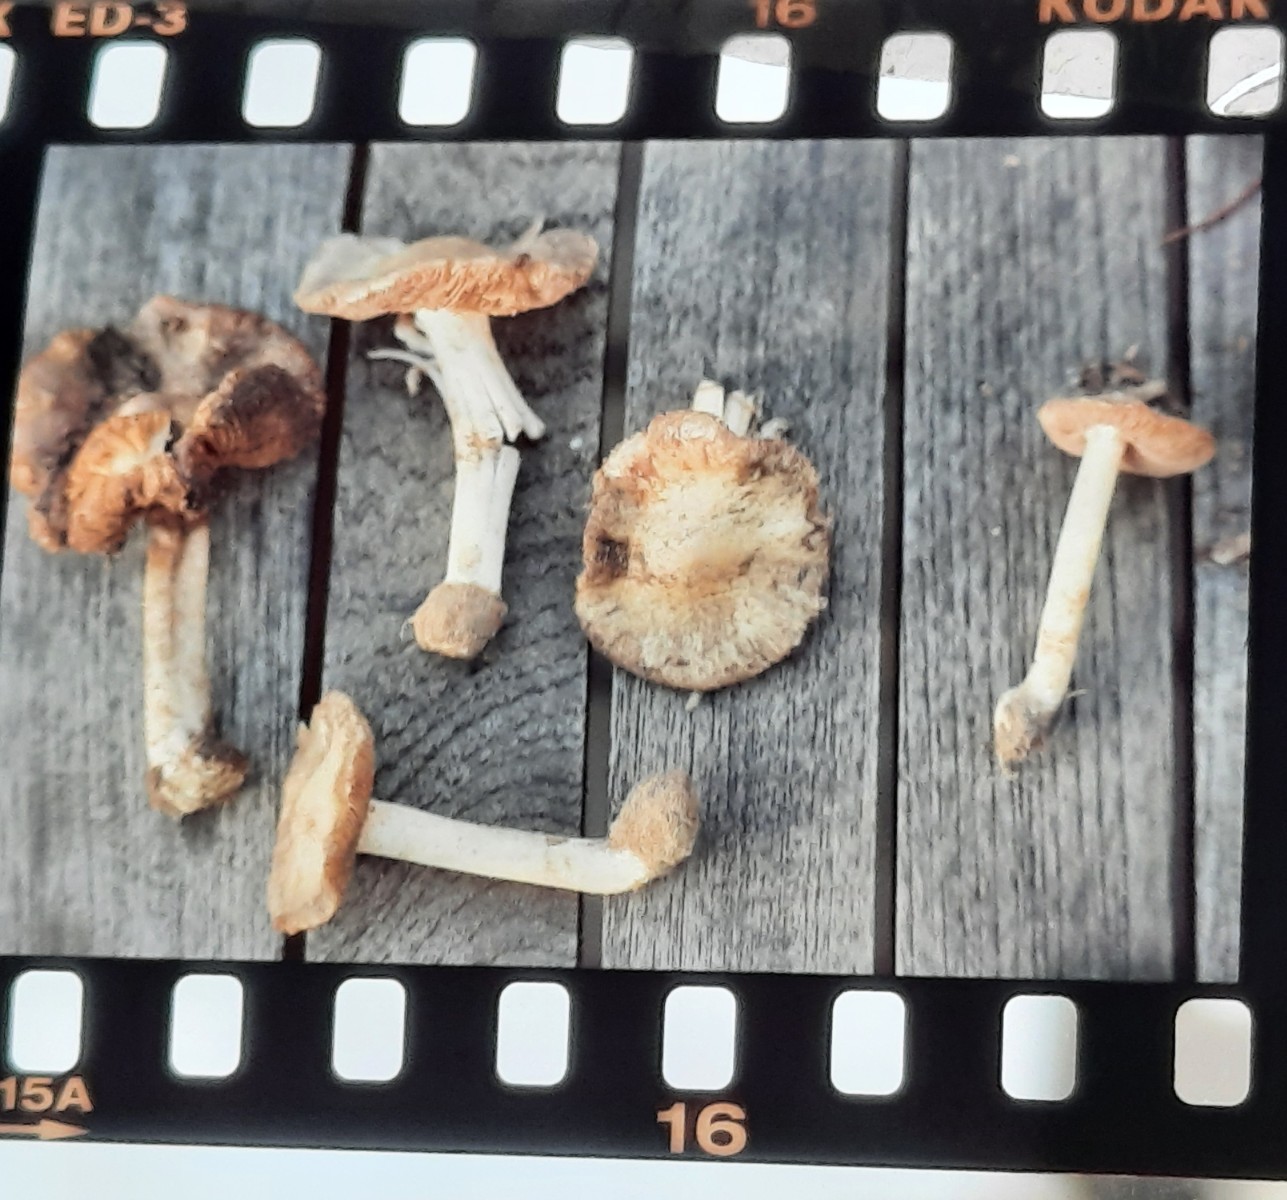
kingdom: Fungi
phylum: Basidiomycota
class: Agaricomycetes
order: Agaricales
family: Inocybaceae
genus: Inocybe
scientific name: Inocybe sambucina
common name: hyldehvid trævlhat
